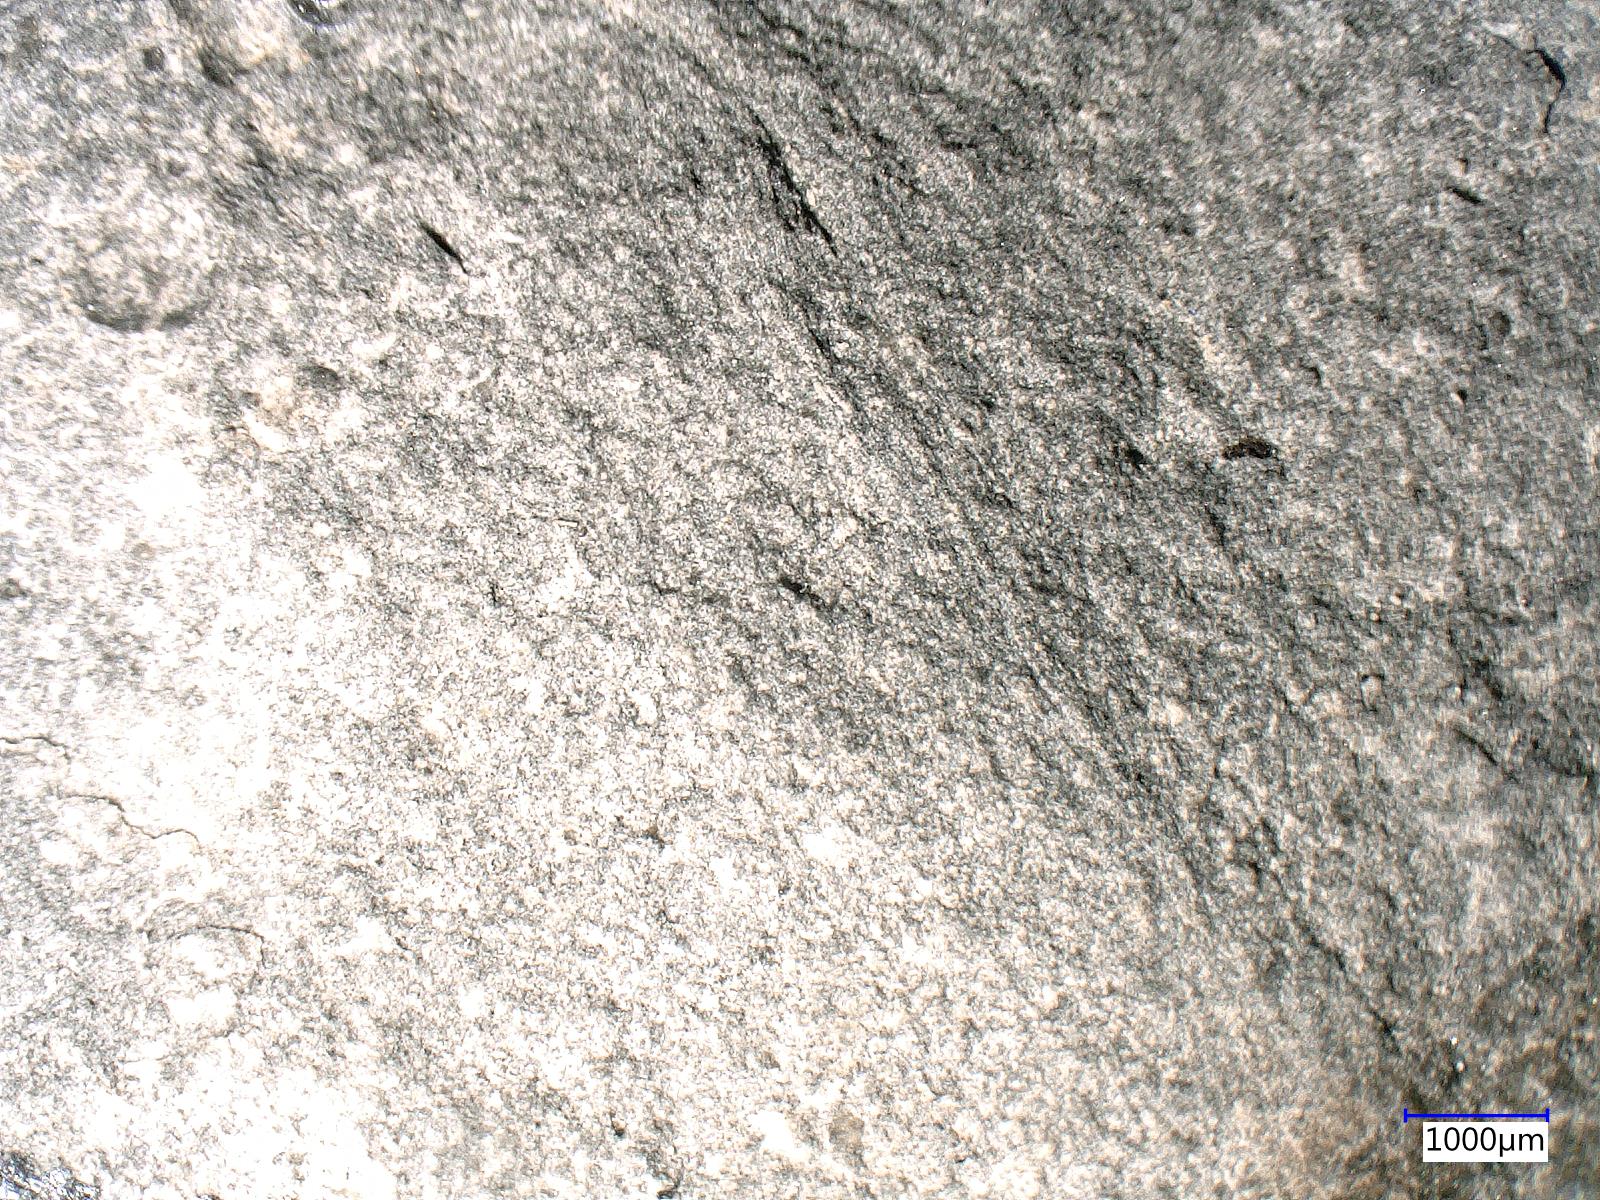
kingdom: Animalia
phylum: Arthropoda
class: Insecta
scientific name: Insecta
